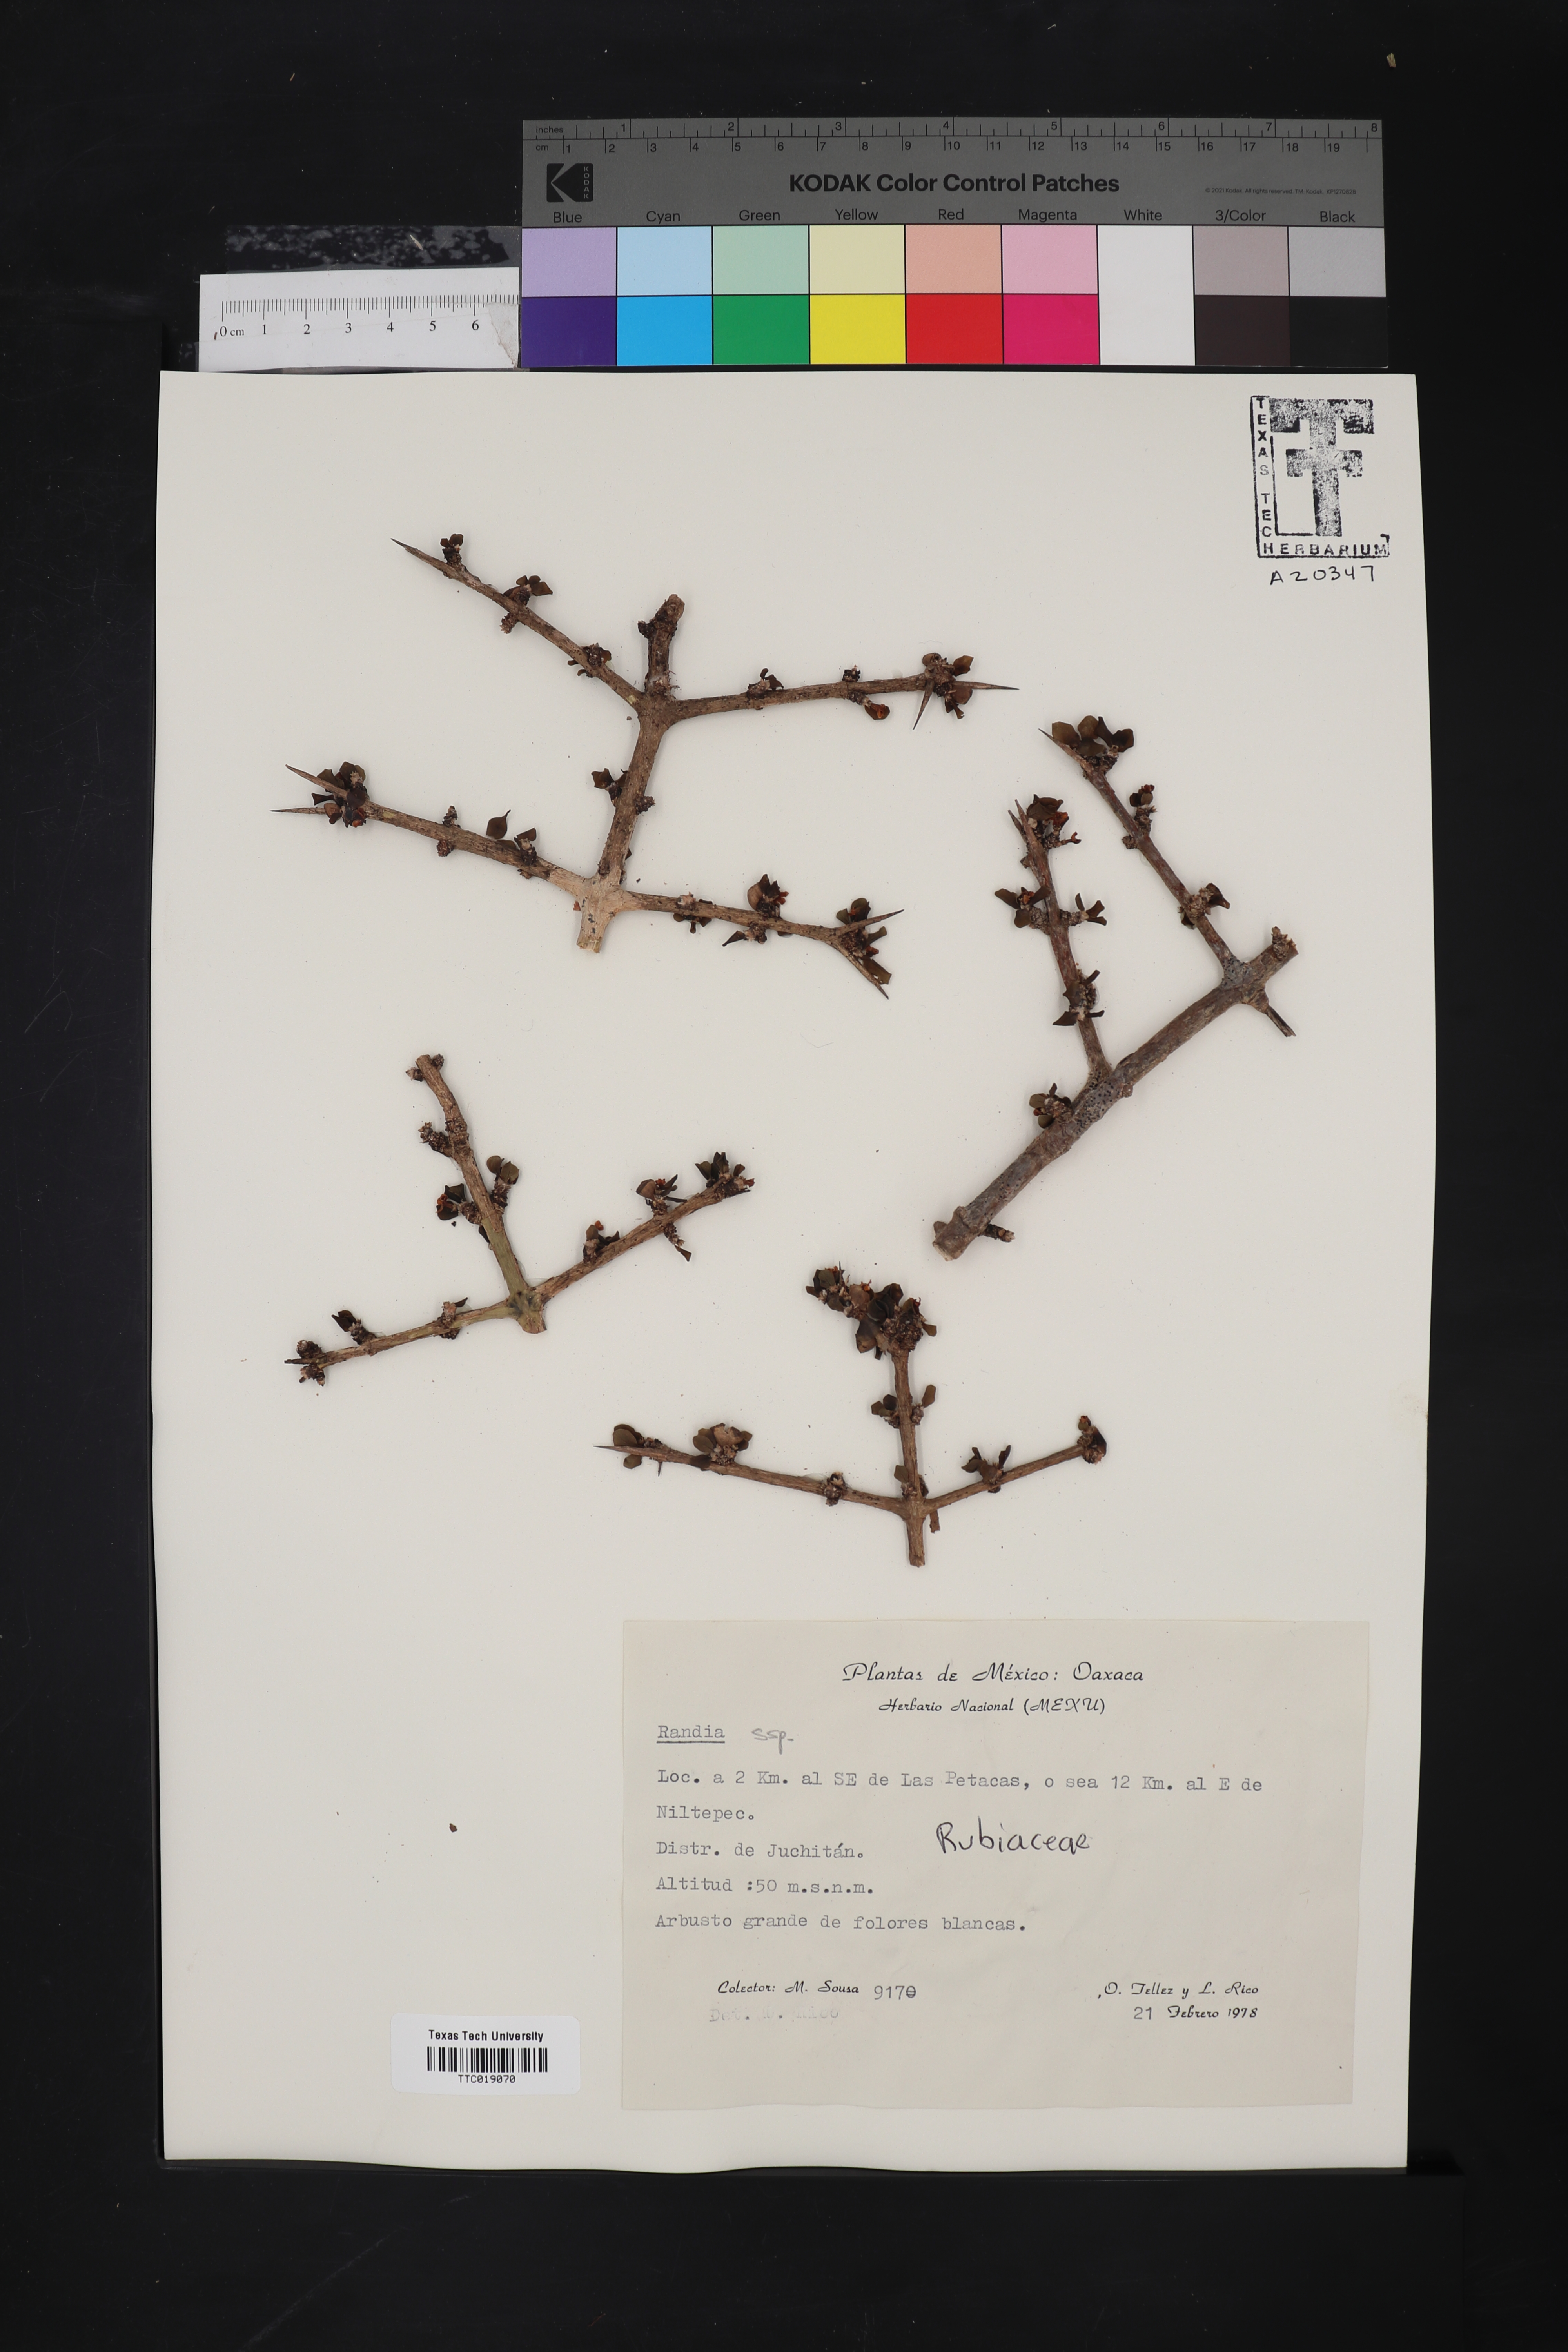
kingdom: Plantae
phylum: Tracheophyta
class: Magnoliopsida
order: Gentianales
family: Rubiaceae
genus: Randia
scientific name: Randia
